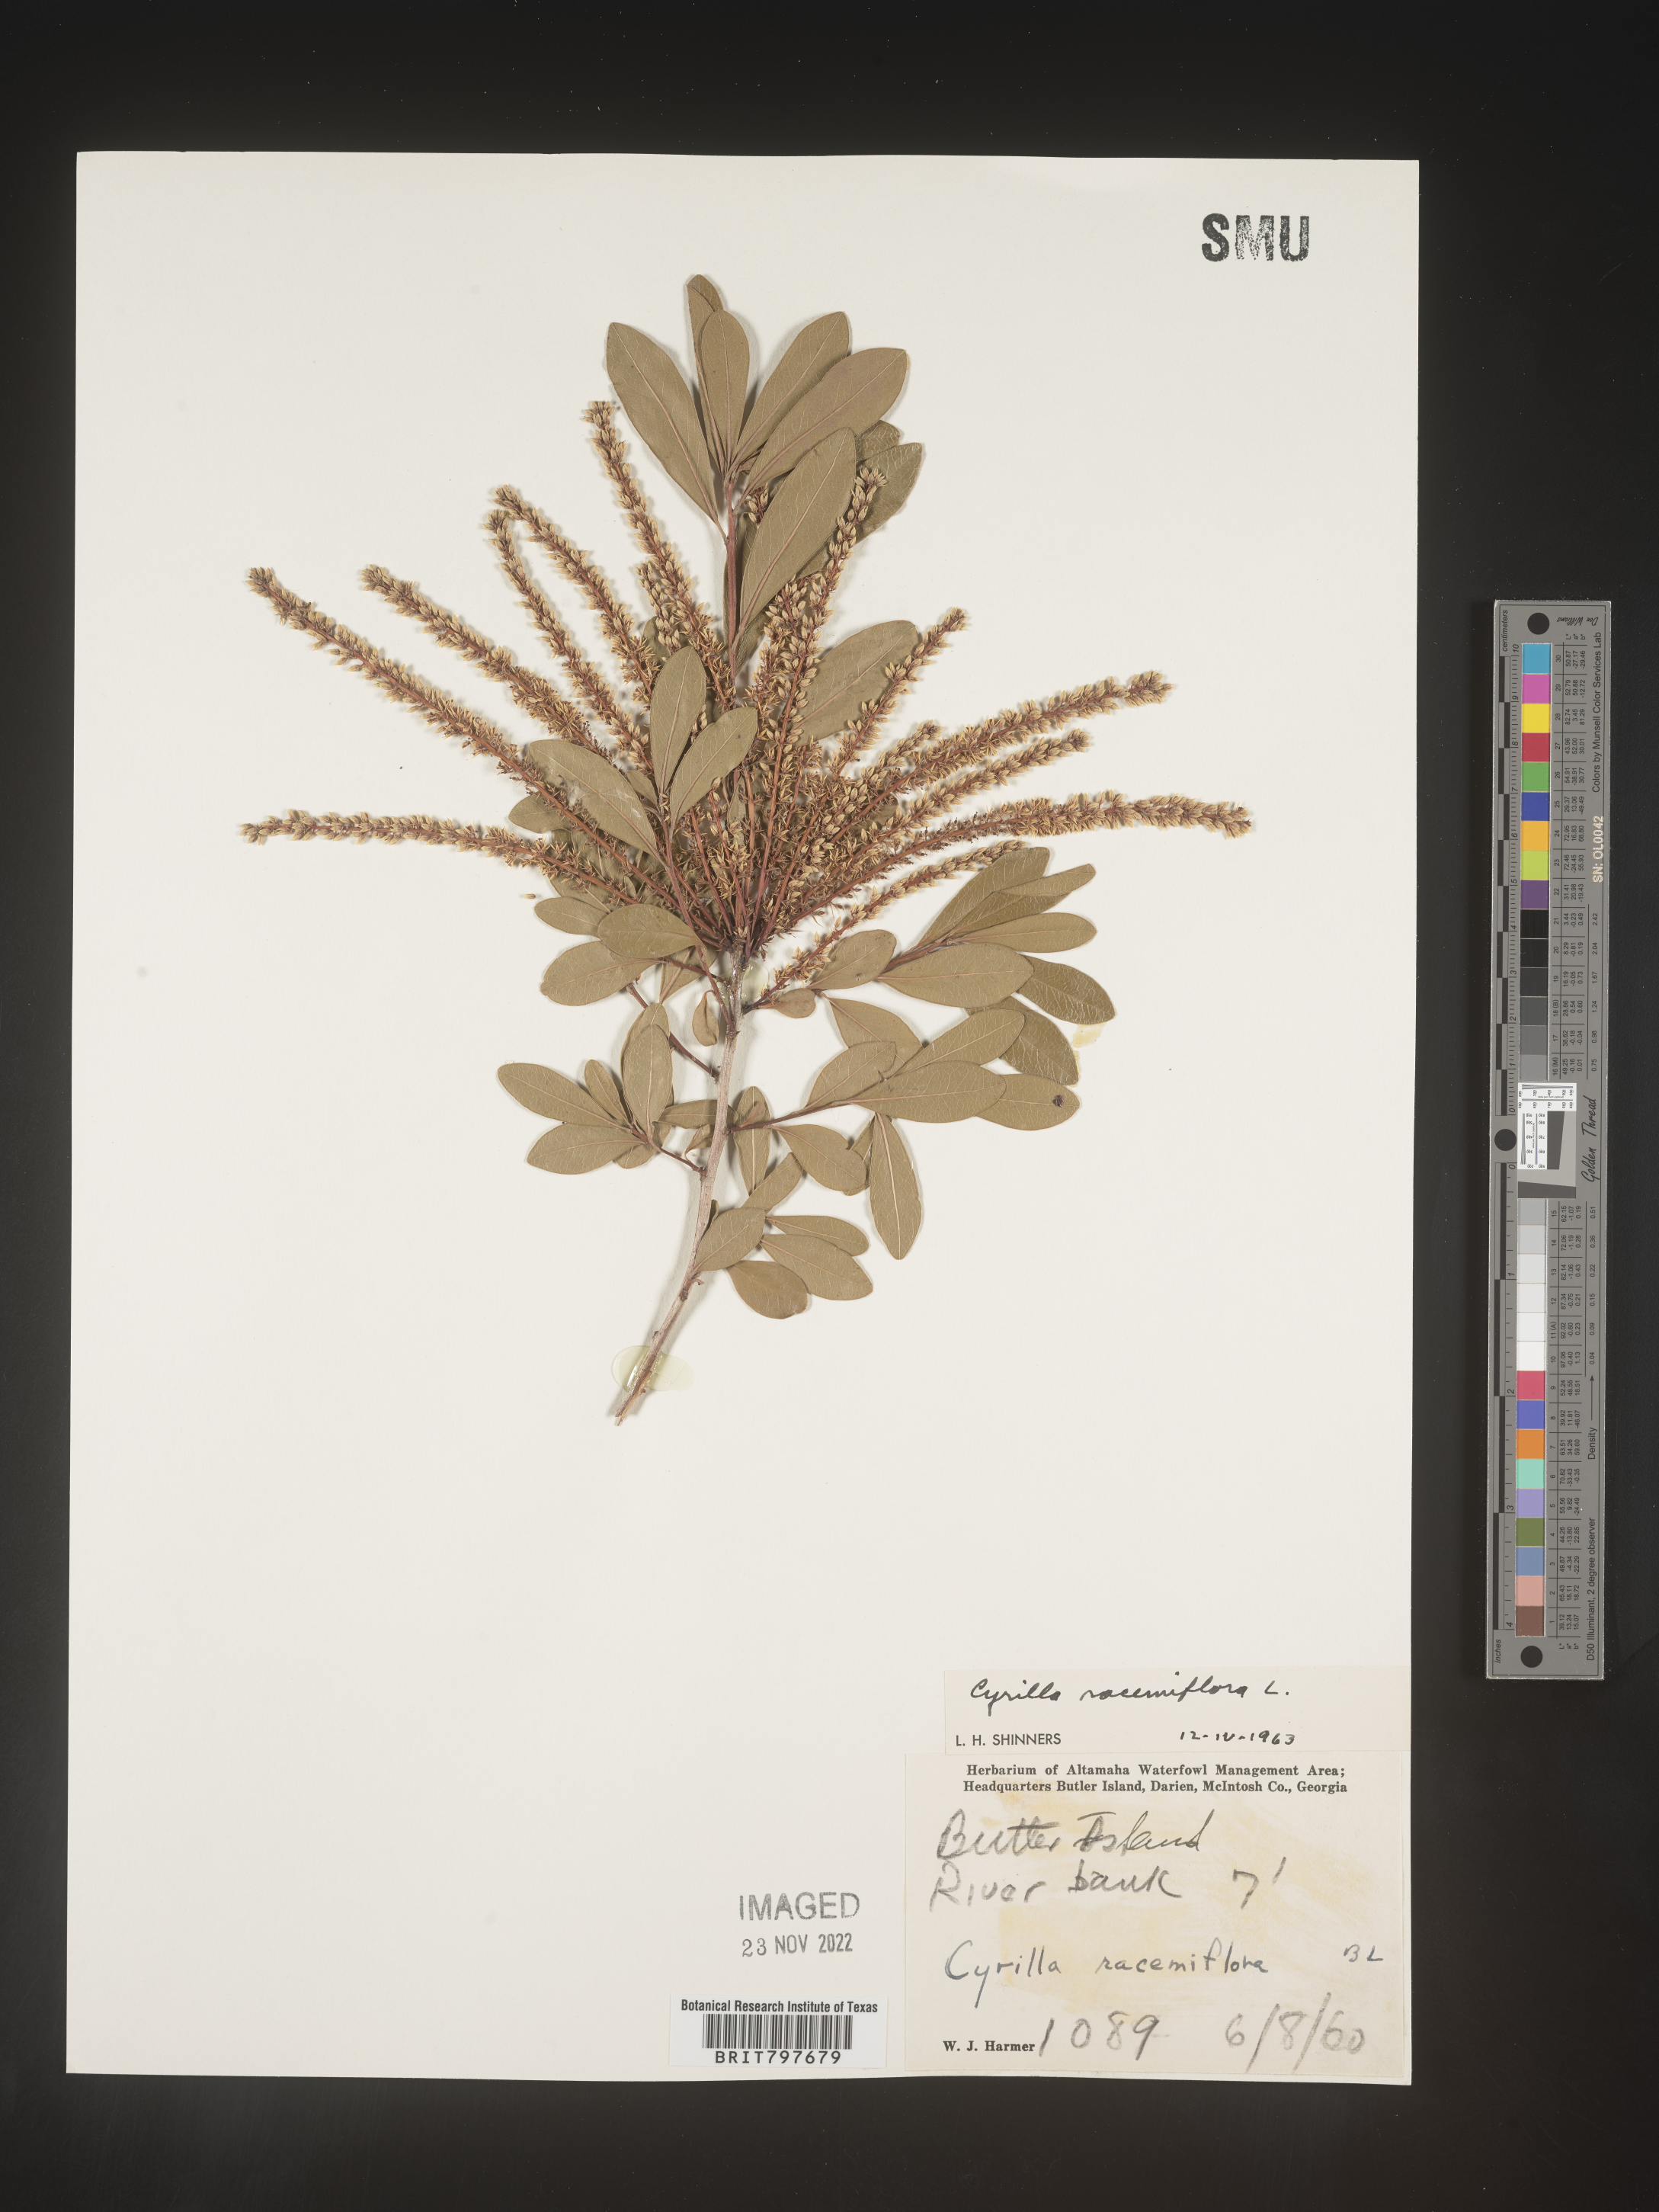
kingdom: Plantae
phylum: Tracheophyta
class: Magnoliopsida
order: Ericales
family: Cyrillaceae
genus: Cyrilla
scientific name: Cyrilla racemiflora
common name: Black titi
